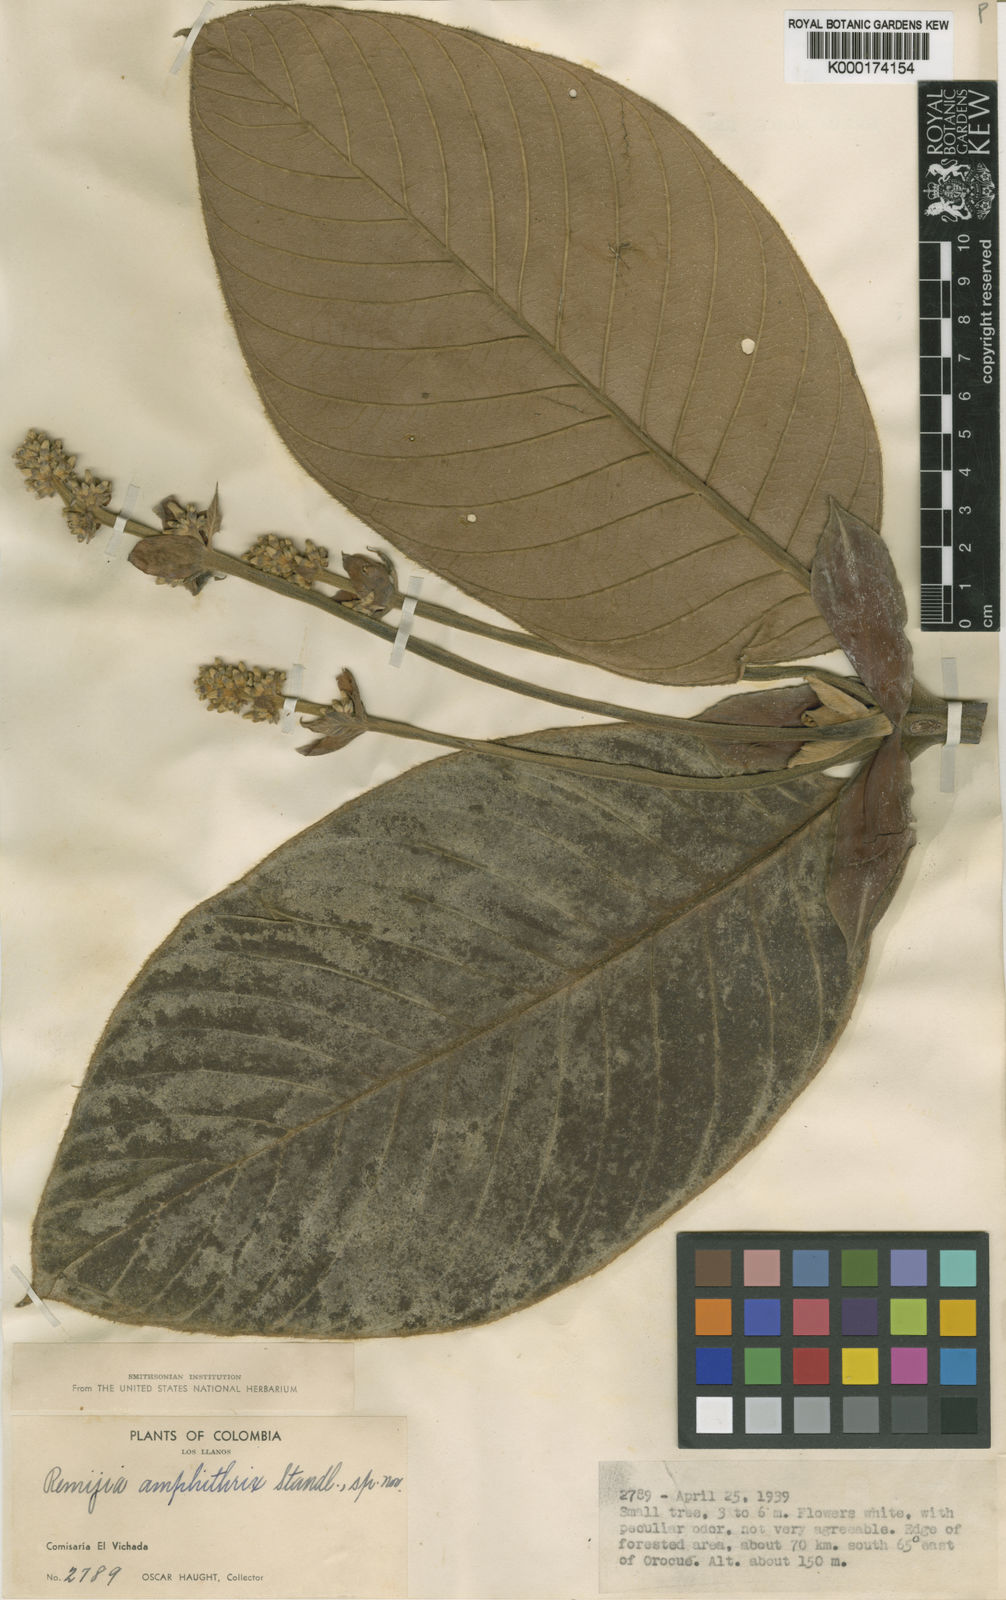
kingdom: Plantae
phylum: Tracheophyta
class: Magnoliopsida
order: Gentianales
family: Rubiaceae
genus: Remijia
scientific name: Remijia amphithrix
